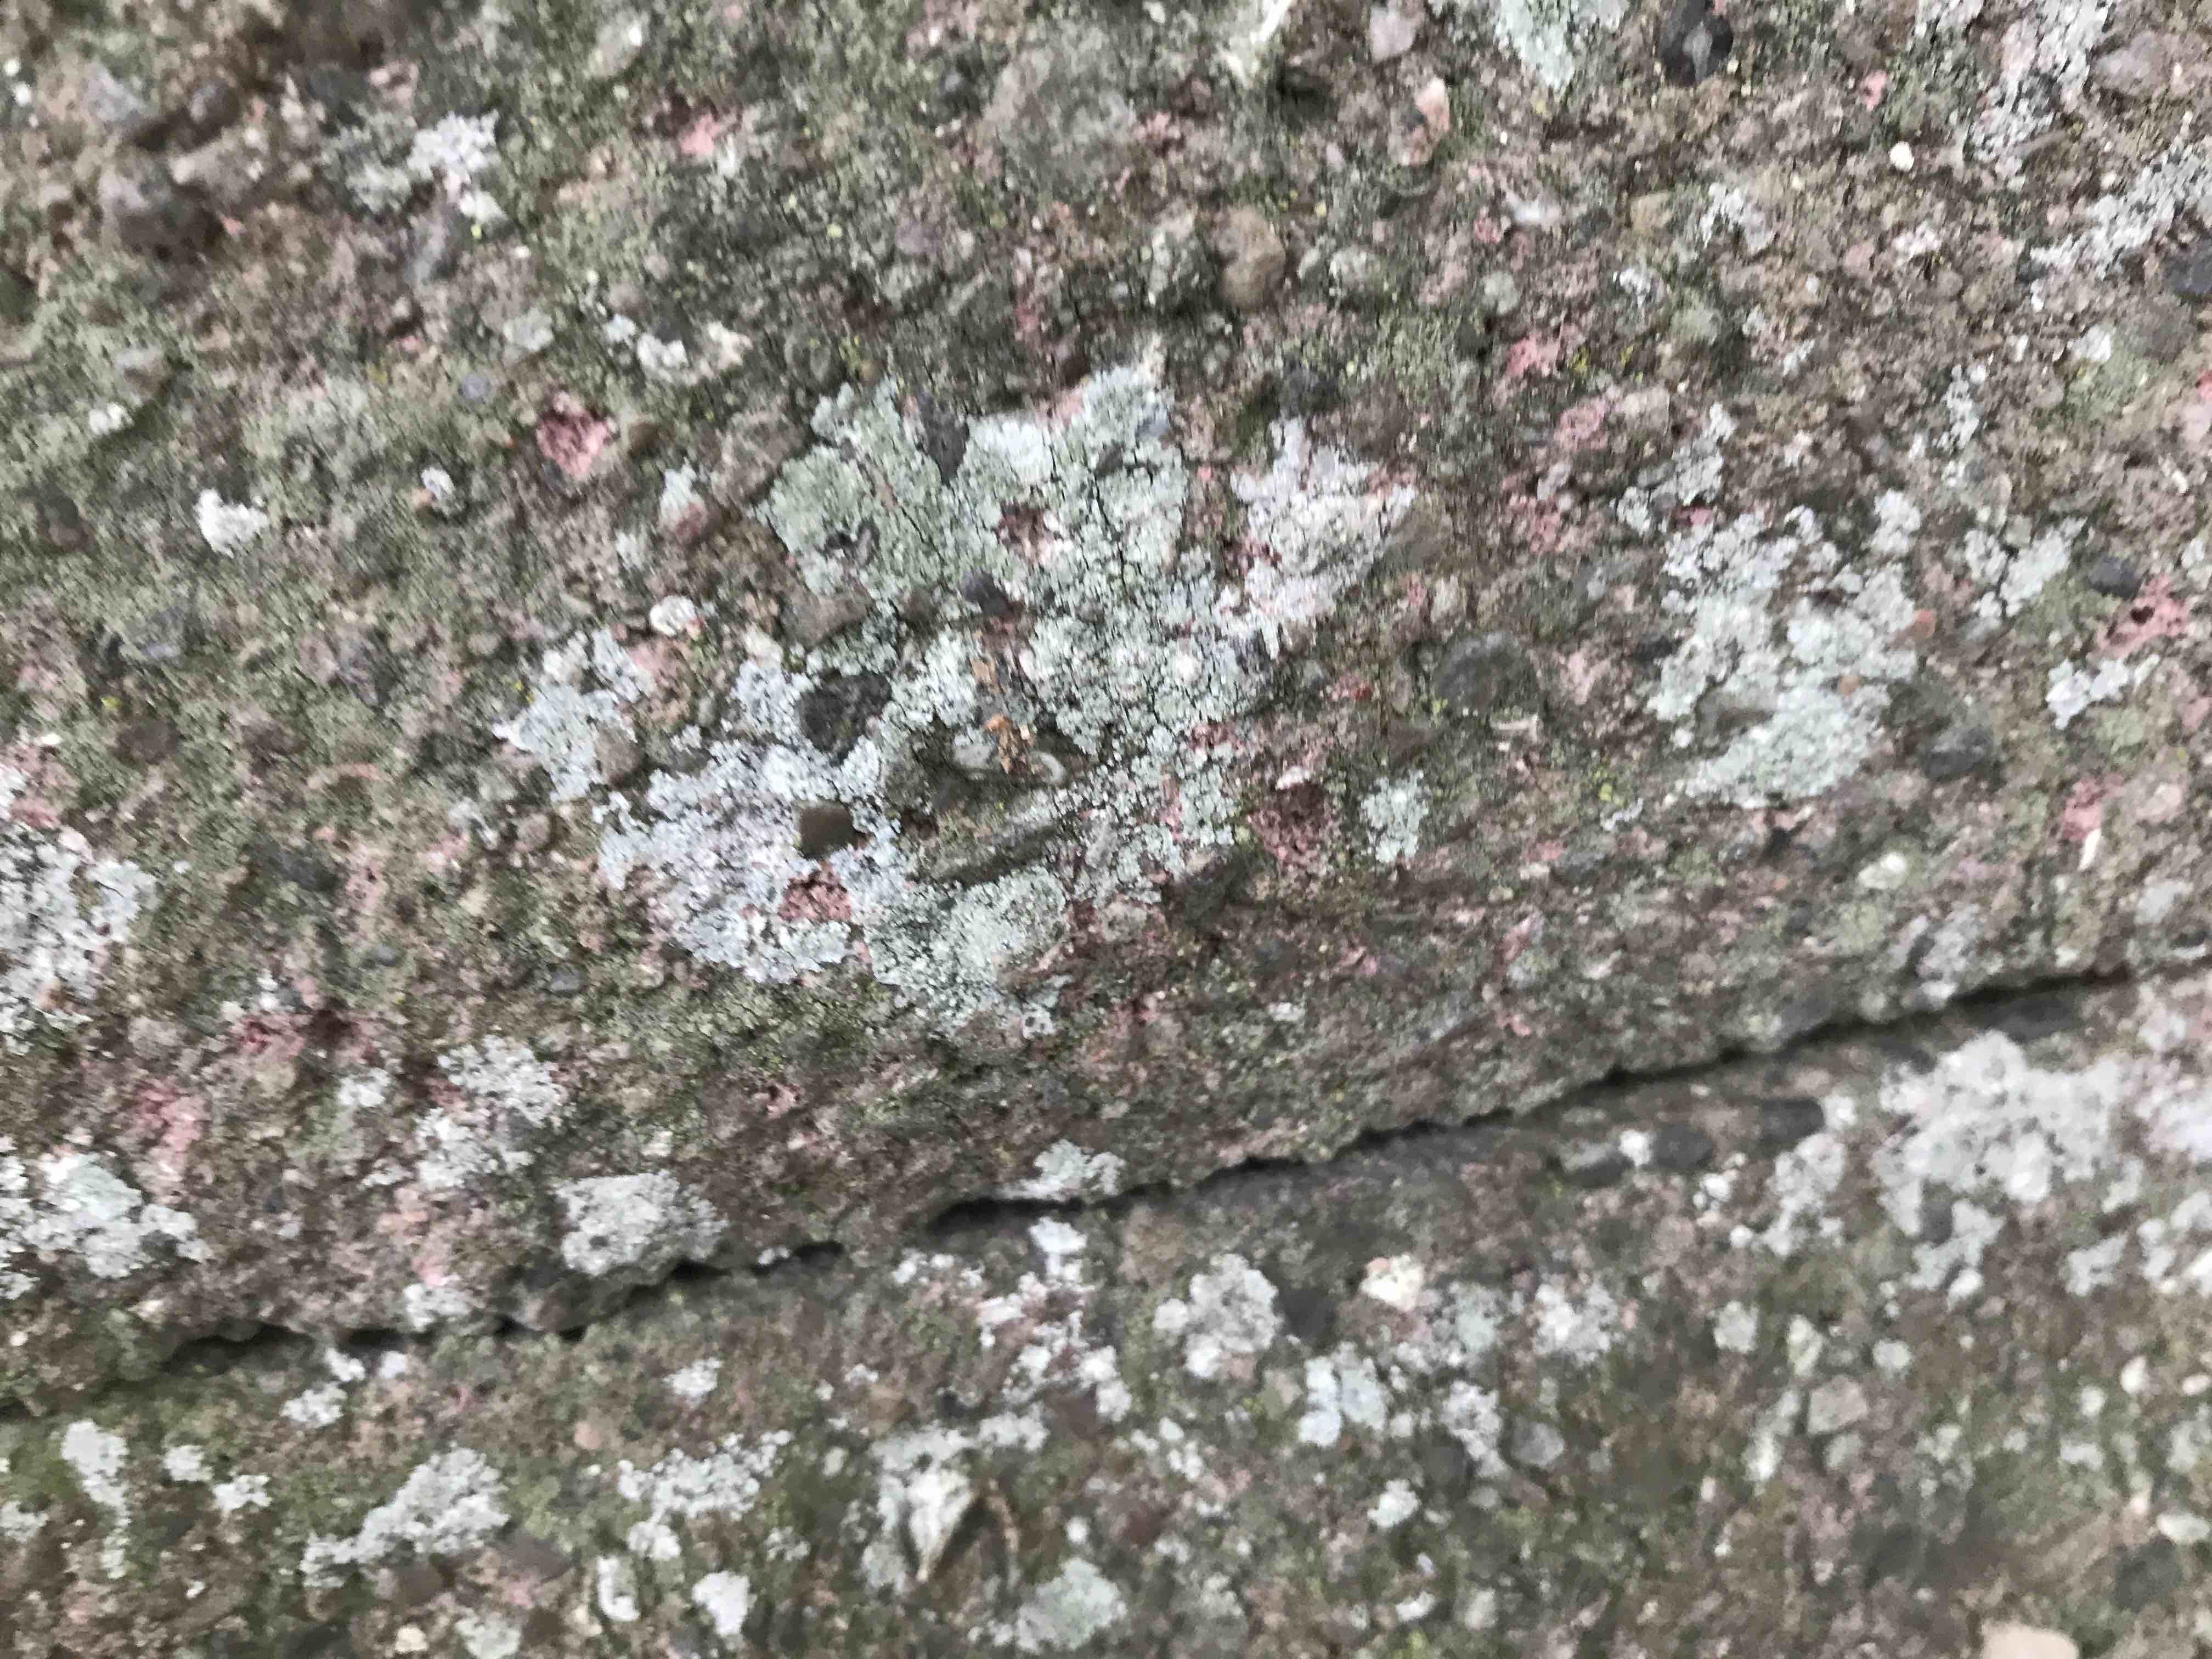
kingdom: Fungi
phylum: Ascomycota
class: Lecanoromycetes
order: Lecanorales
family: Lecanoraceae
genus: Polyozosia
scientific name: Polyozosia albescens
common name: cement-kantskivelav
